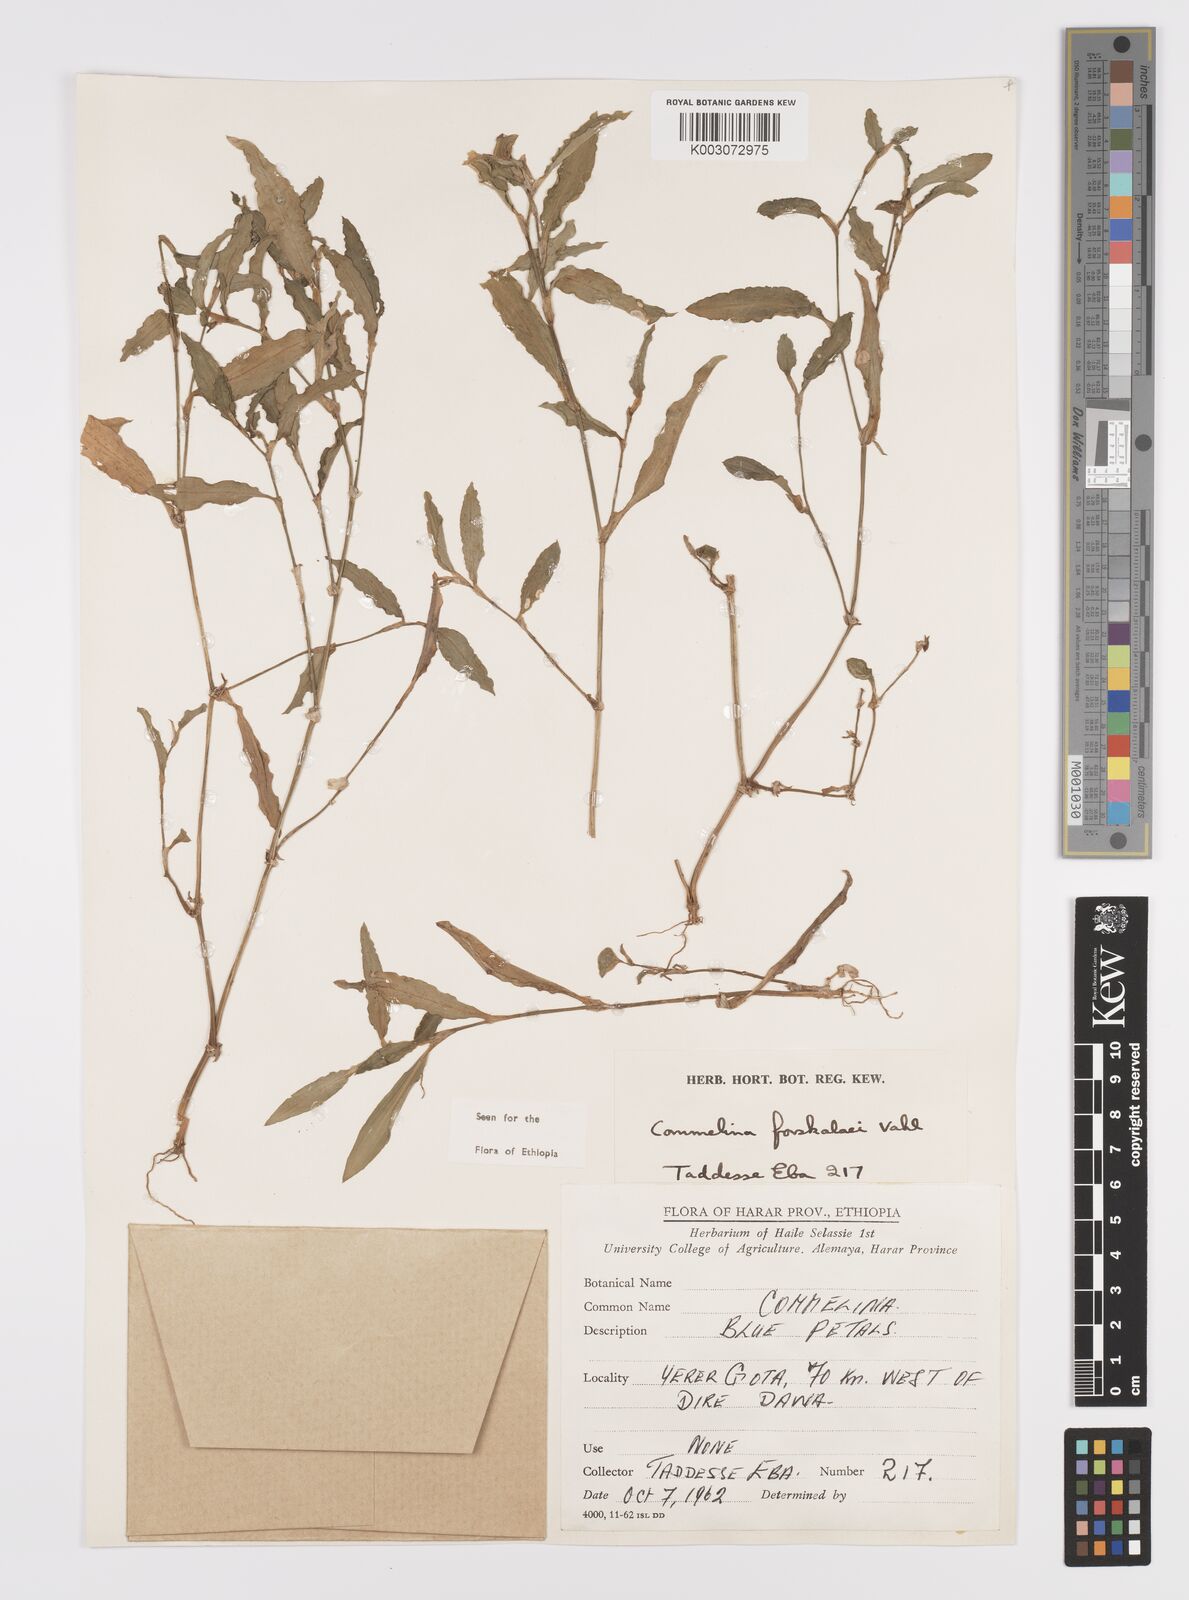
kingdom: Plantae
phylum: Tracheophyta
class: Liliopsida
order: Commelinales
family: Commelinaceae
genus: Commelina
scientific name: Commelina forskaolii
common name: Rat's ear
